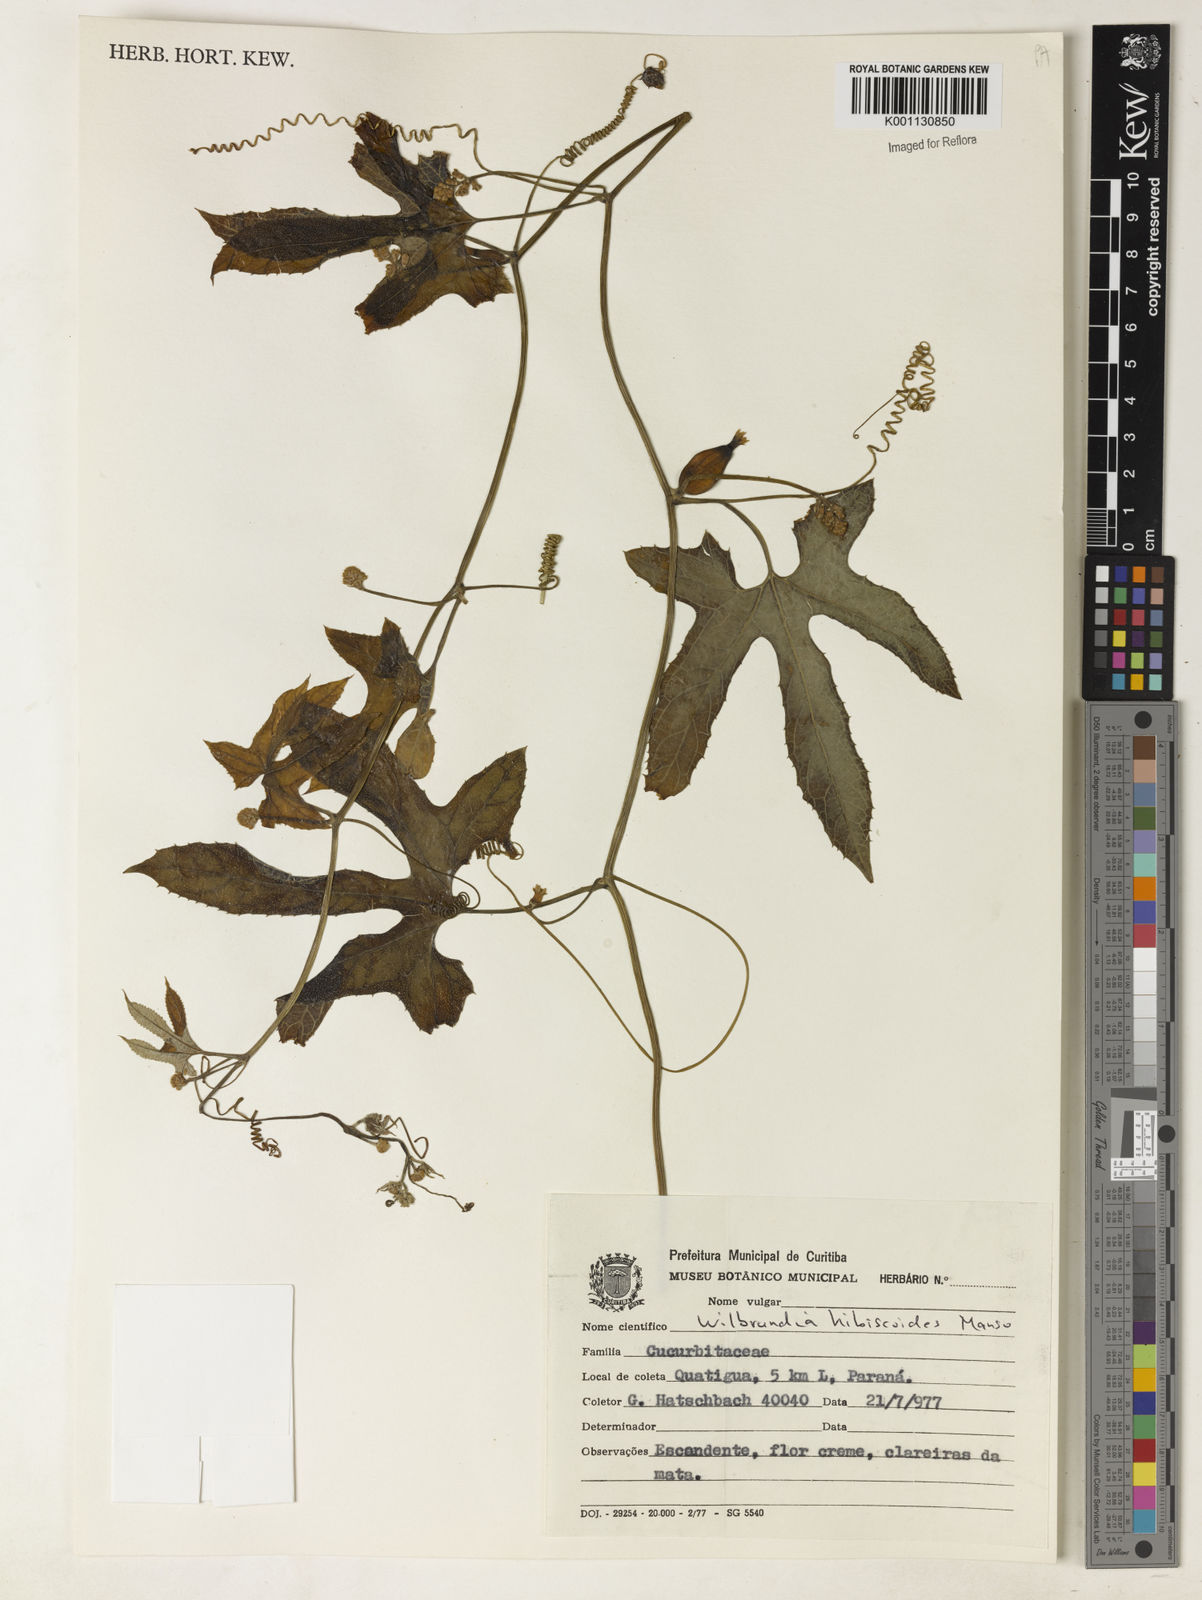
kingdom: Plantae
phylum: Tracheophyta
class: Magnoliopsida
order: Cucurbitales
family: Cucurbitaceae
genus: Wilbrandia
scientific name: Wilbrandia hibiscoides
